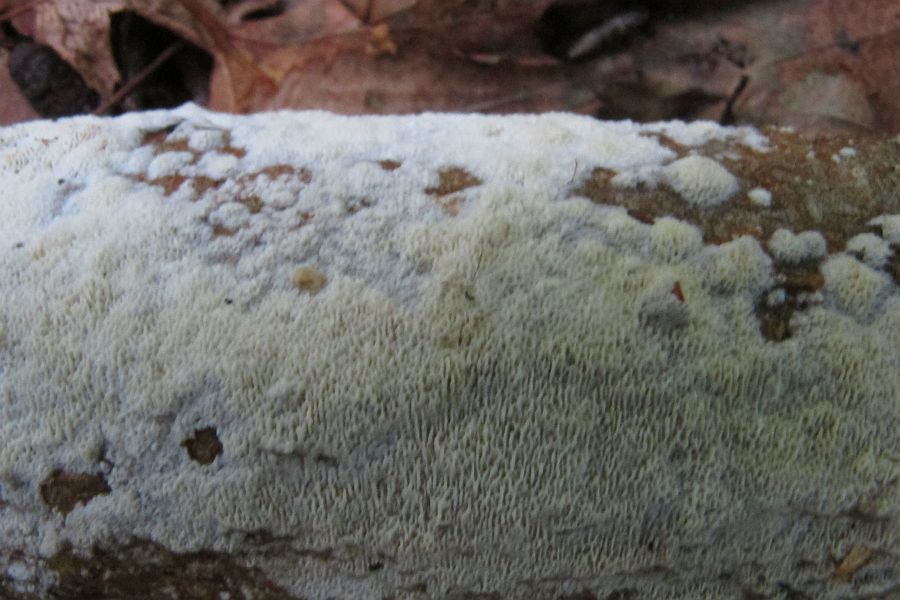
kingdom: Fungi
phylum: Basidiomycota
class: Agaricomycetes
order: Hymenochaetales
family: Schizoporaceae
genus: Schizopora
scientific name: Schizopora paradoxa
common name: hvid tandsvamp
